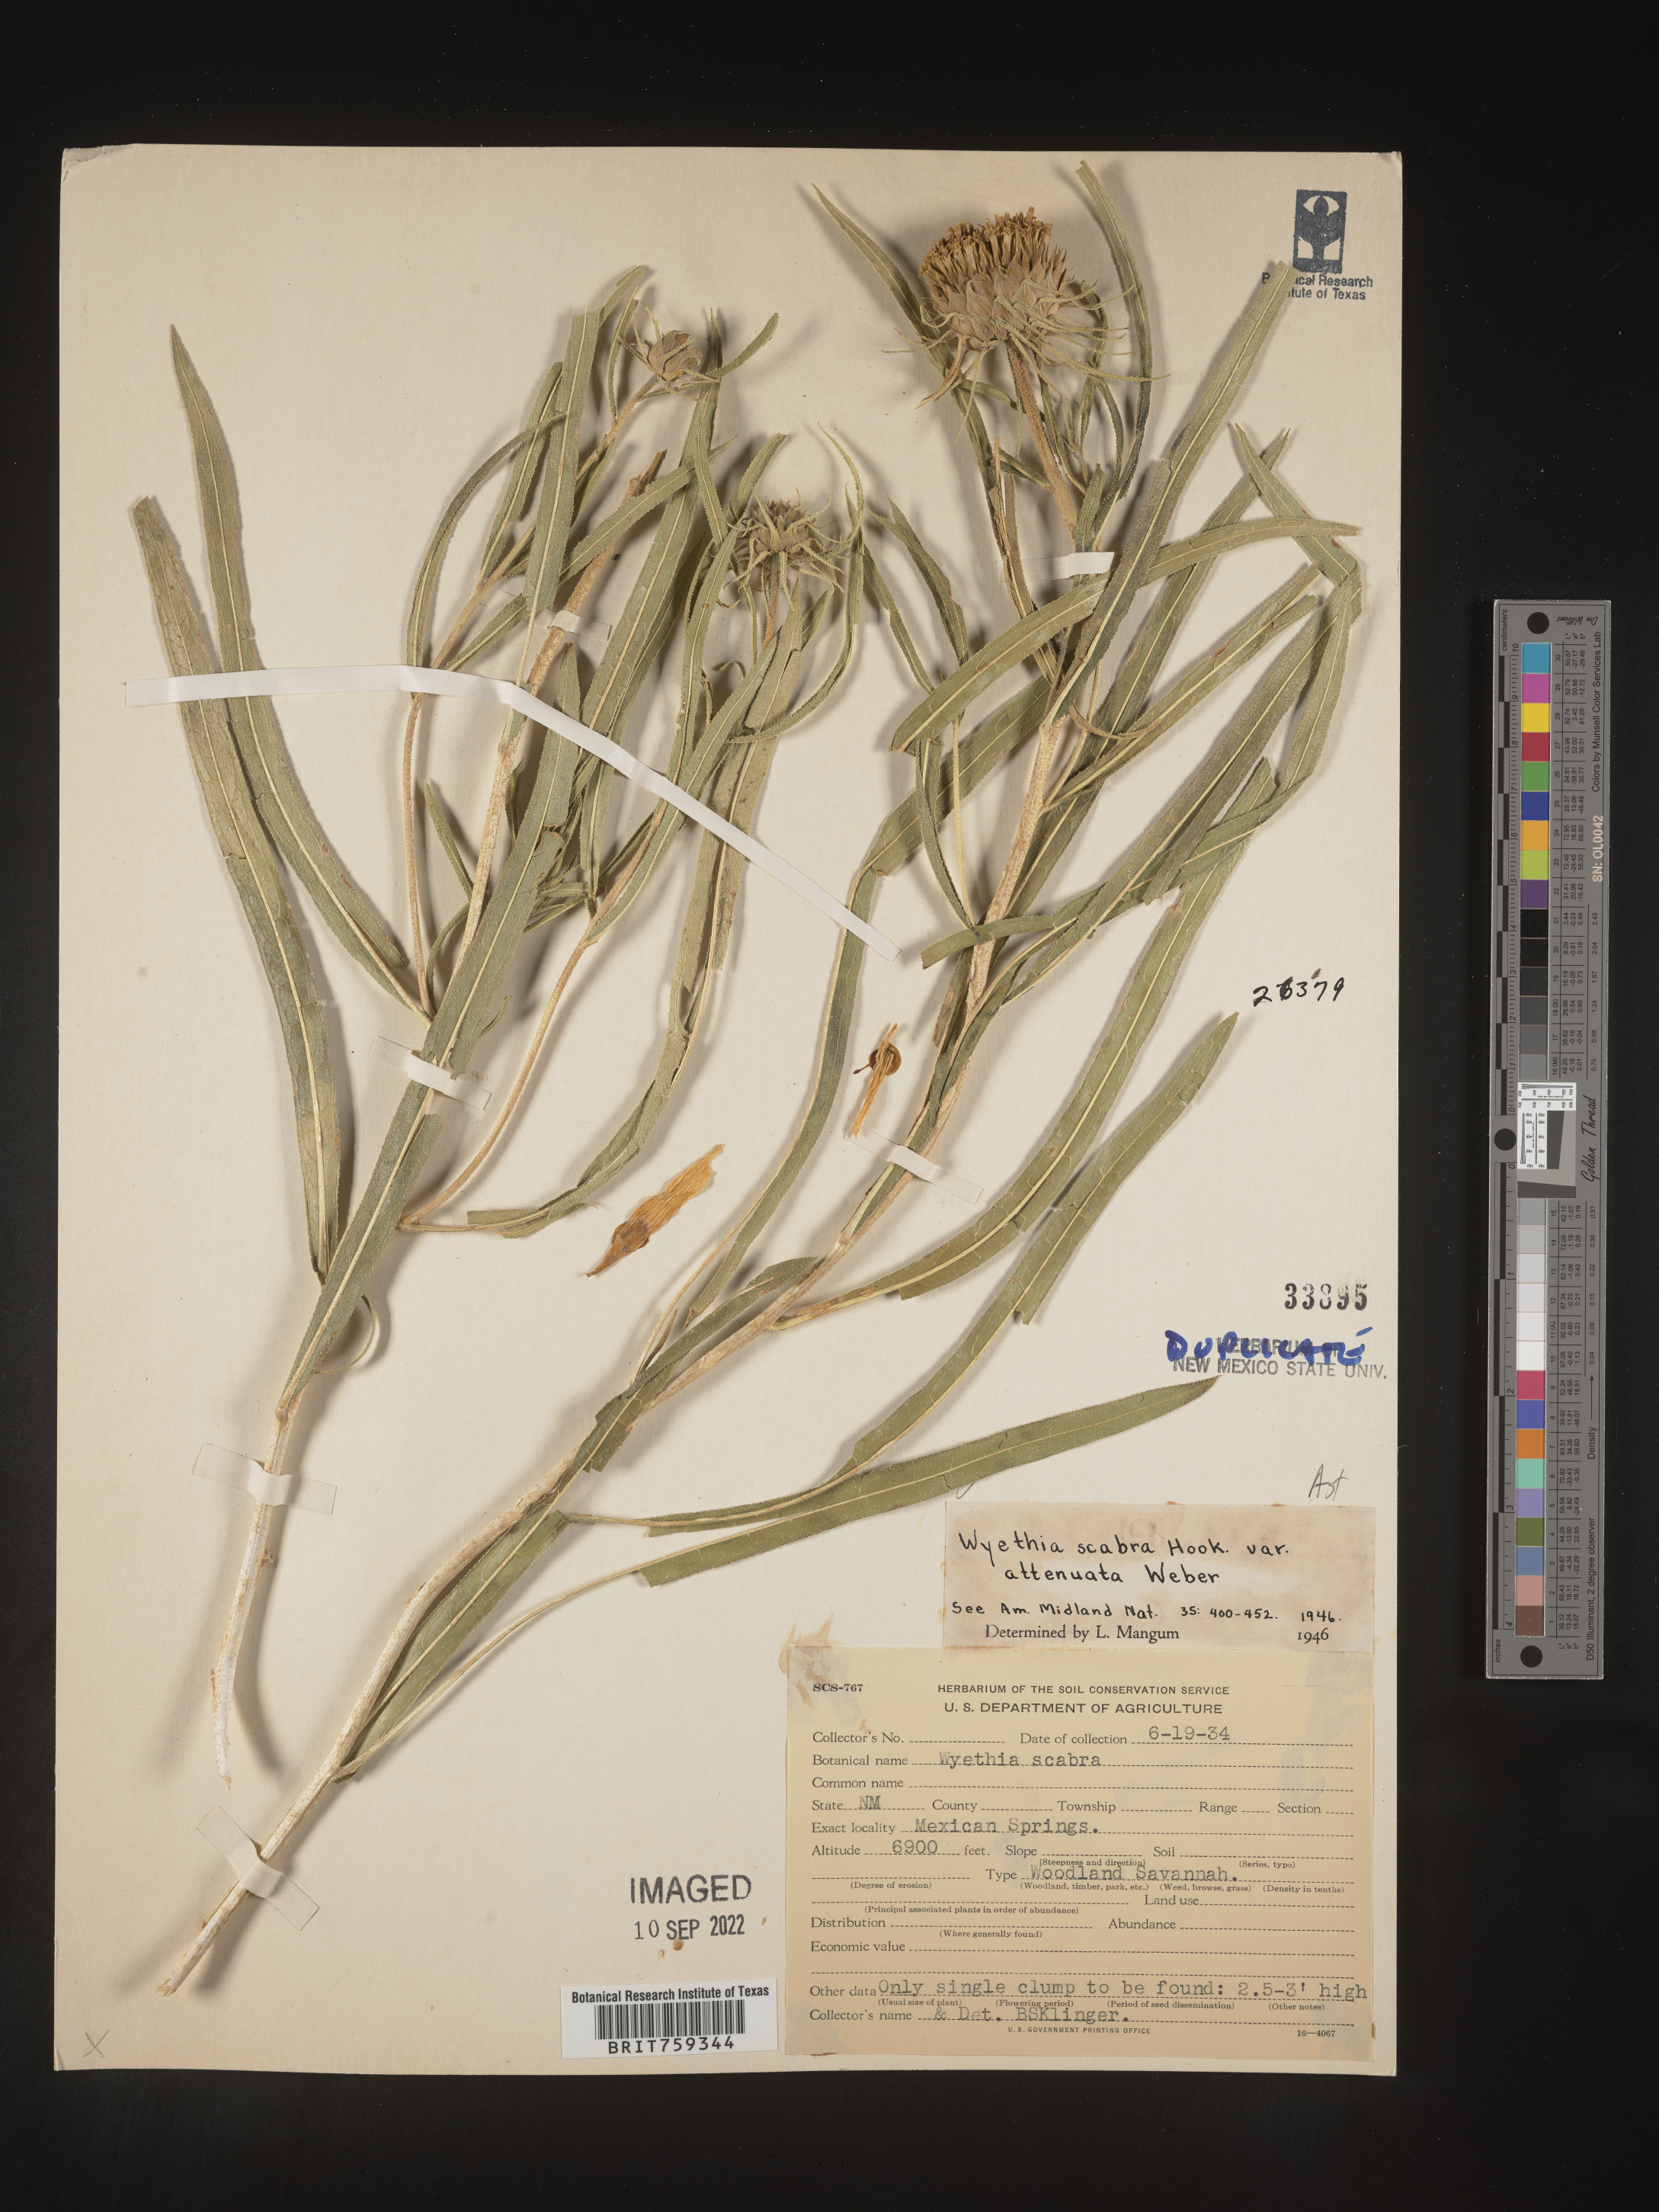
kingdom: Plantae
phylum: Tracheophyta
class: Magnoliopsida
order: Asterales
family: Asteraceae
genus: Scabrethia
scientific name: Scabrethia scabra
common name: Rough mules's-ears
